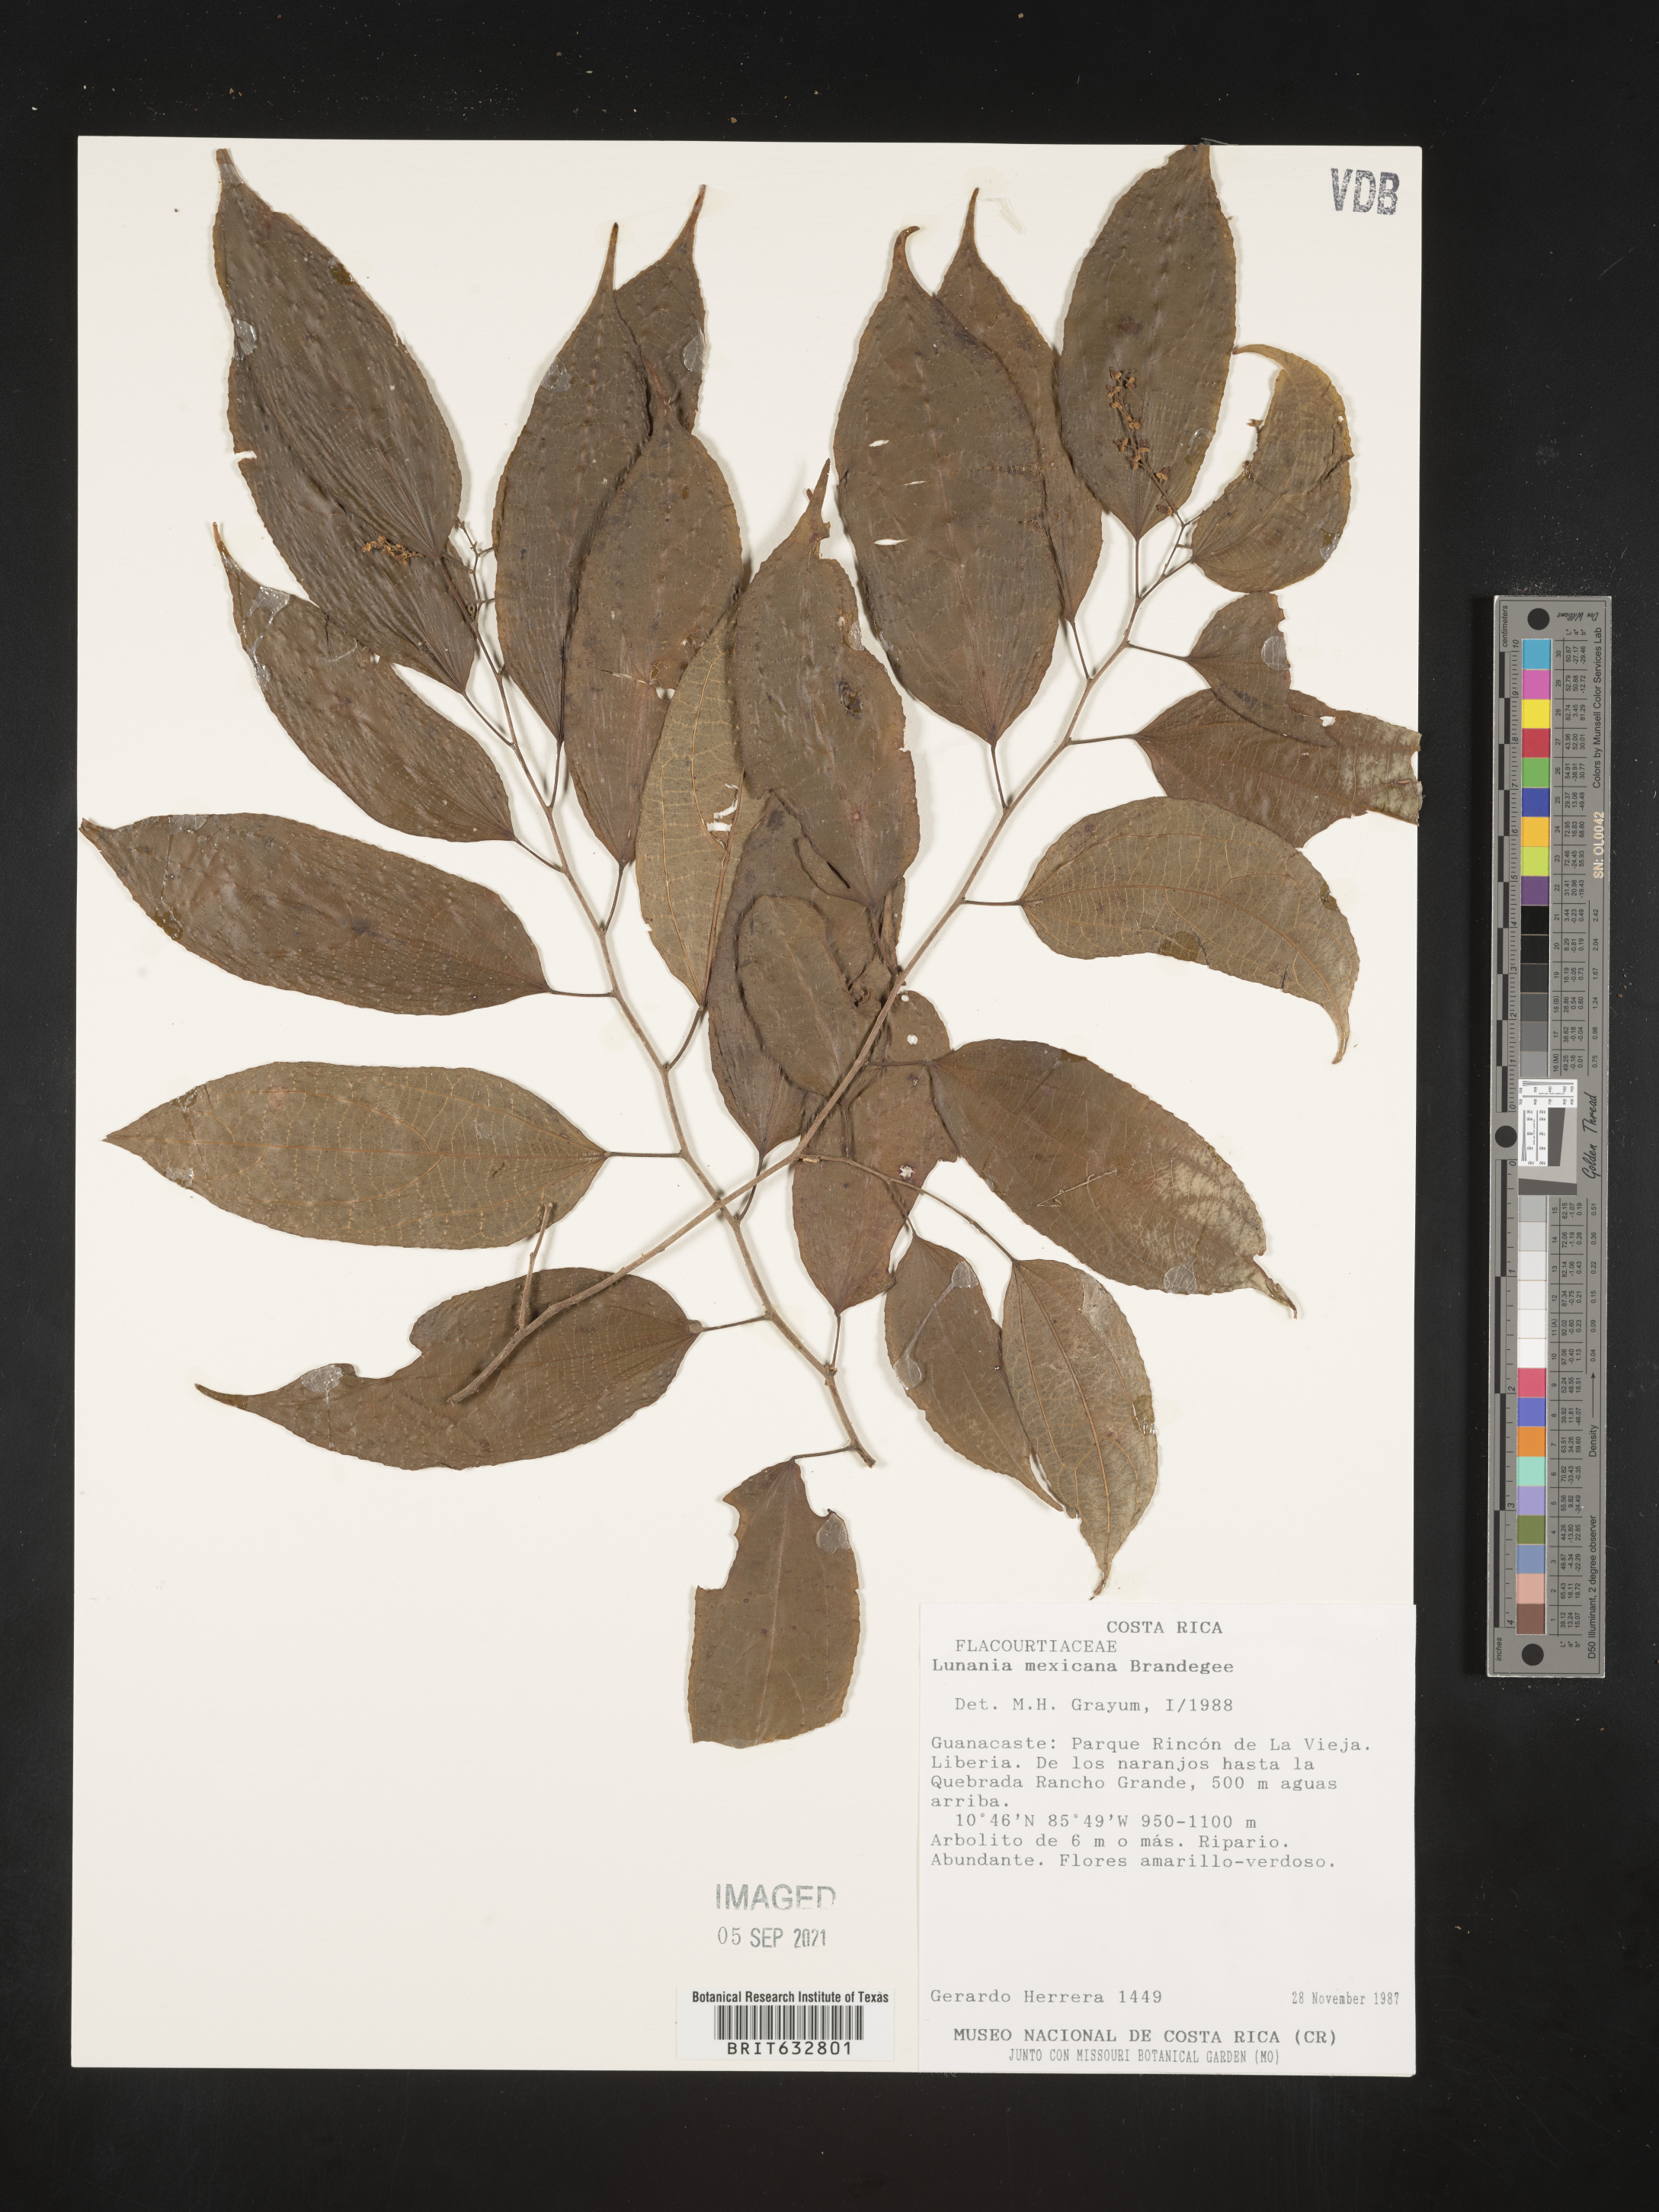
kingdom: Plantae
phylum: Tracheophyta
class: Magnoliopsida
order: Malpighiales
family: Salicaceae
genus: Lunania
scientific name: Lunania
